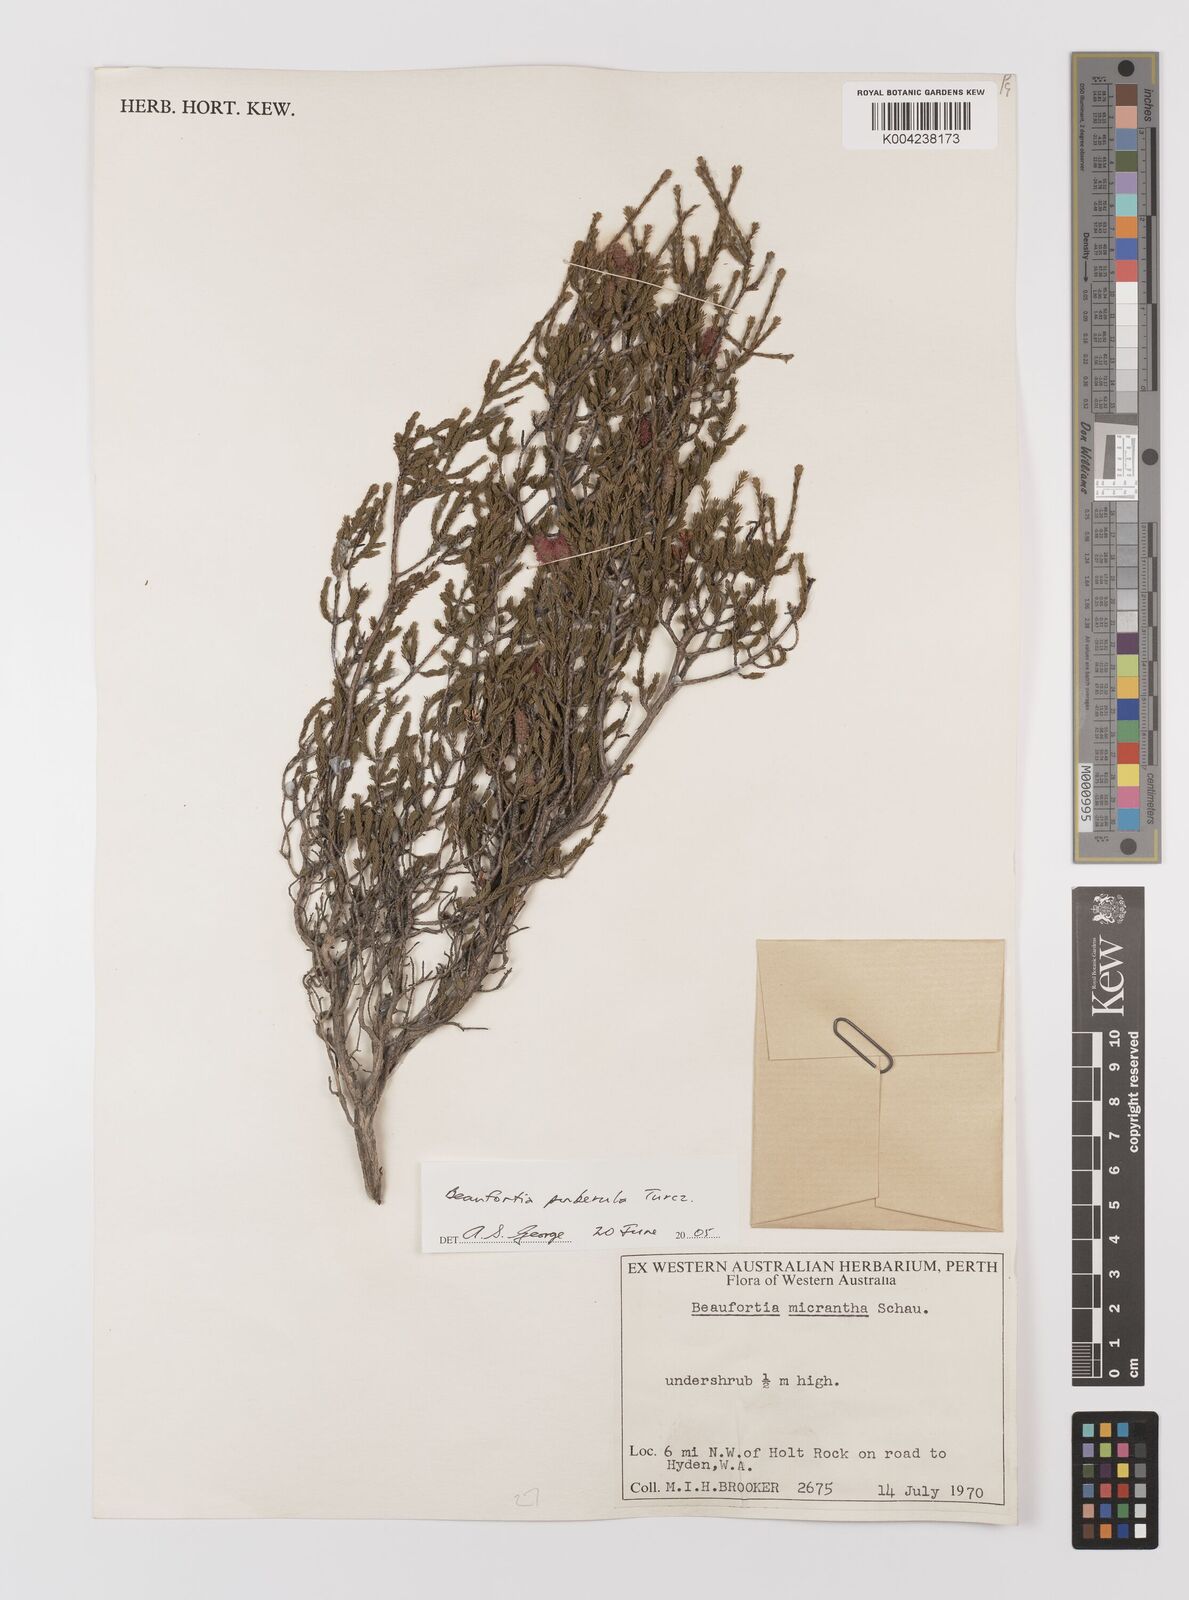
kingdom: Plantae
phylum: Tracheophyta
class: Magnoliopsida
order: Myrtales
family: Myrtaceae
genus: Melaleuca
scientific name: Melaleuca micrantha
